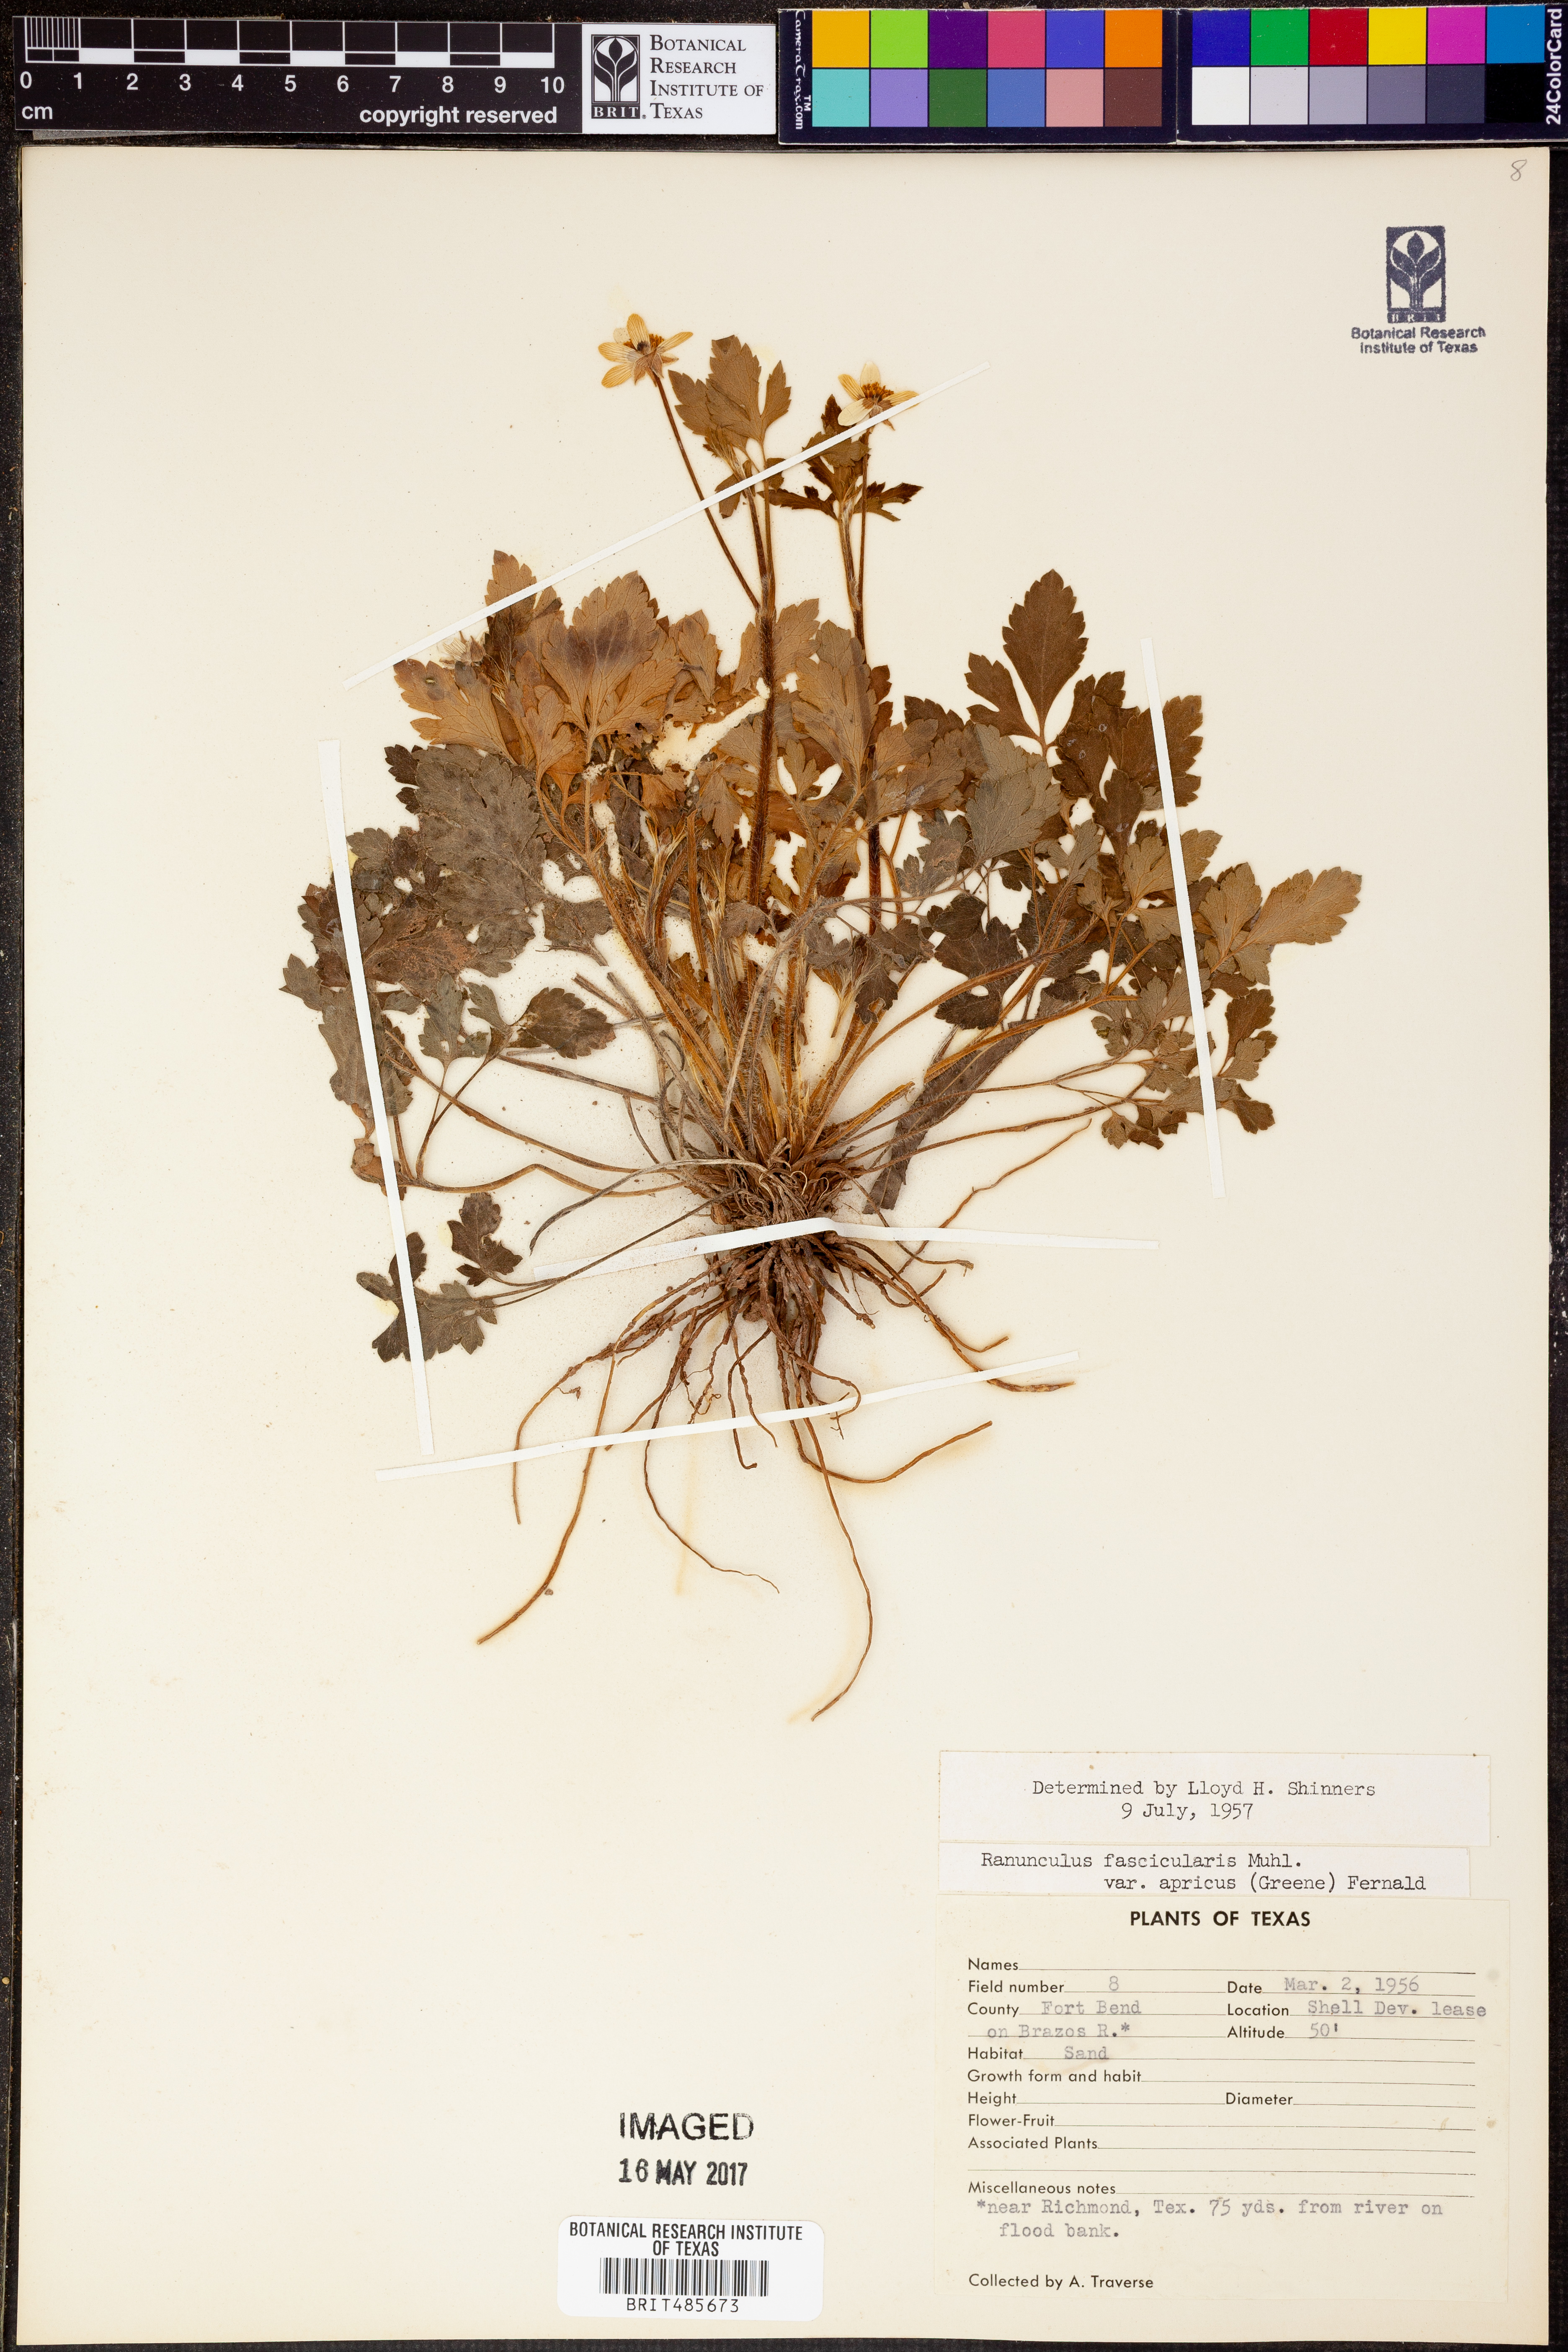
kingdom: Plantae
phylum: Tracheophyta
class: Magnoliopsida
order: Ranunculales
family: Ranunculaceae
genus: Ranunculus
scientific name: Ranunculus fascicularis
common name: Early buttercup
